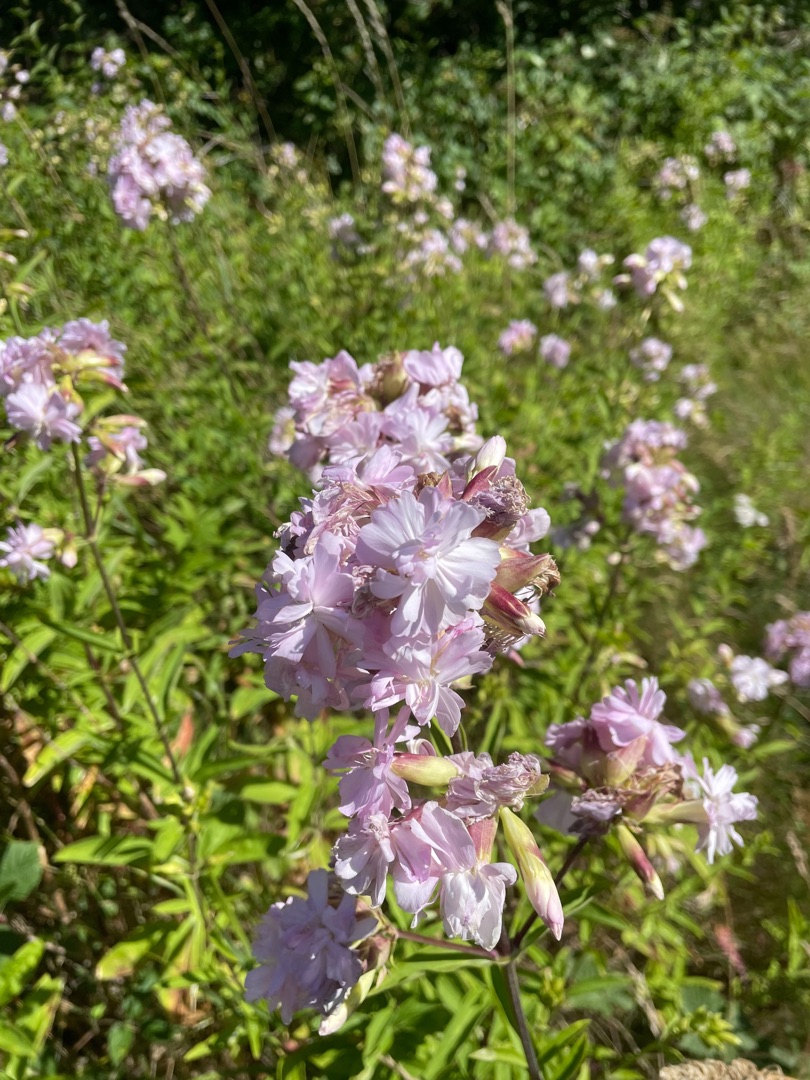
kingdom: Plantae
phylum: Tracheophyta
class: Magnoliopsida
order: Caryophyllales
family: Caryophyllaceae
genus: Saponaria
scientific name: Saponaria officinalis
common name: Sæbeurt
